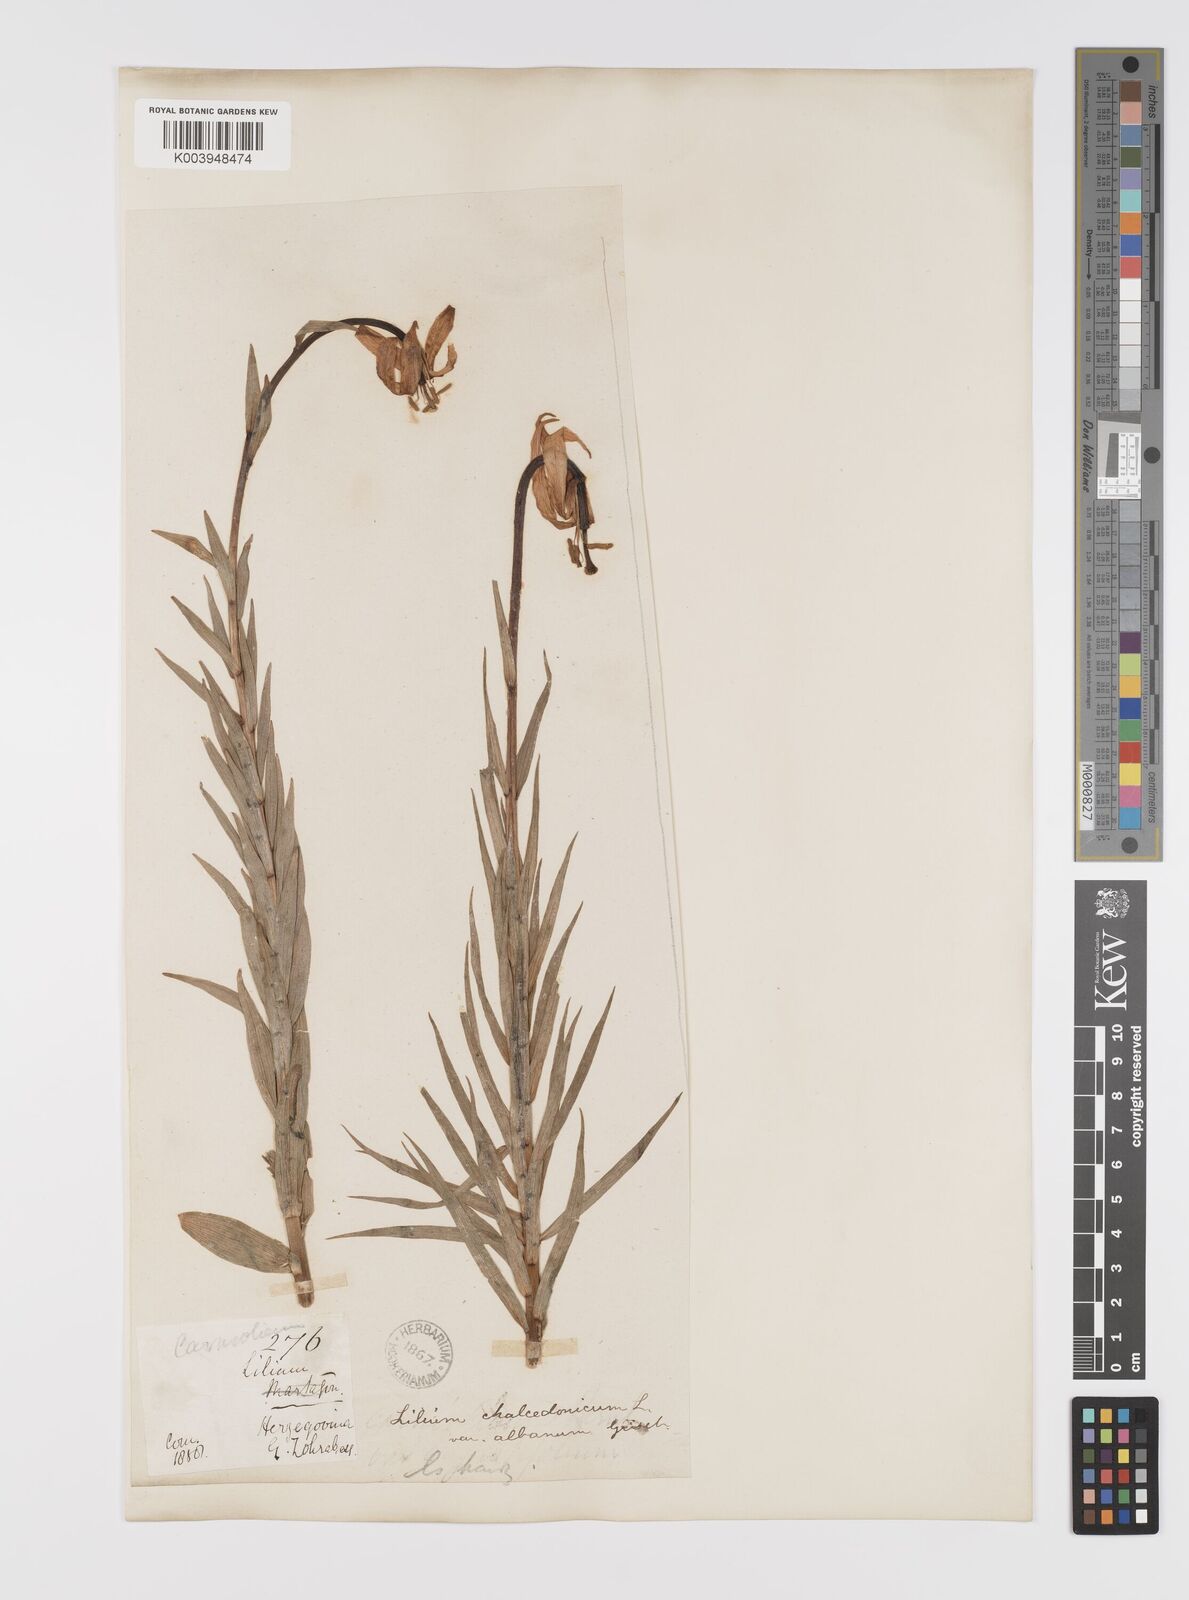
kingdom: Plantae
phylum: Tracheophyta
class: Liliopsida
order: Liliales
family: Liliaceae
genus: Lilium
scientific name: Lilium
